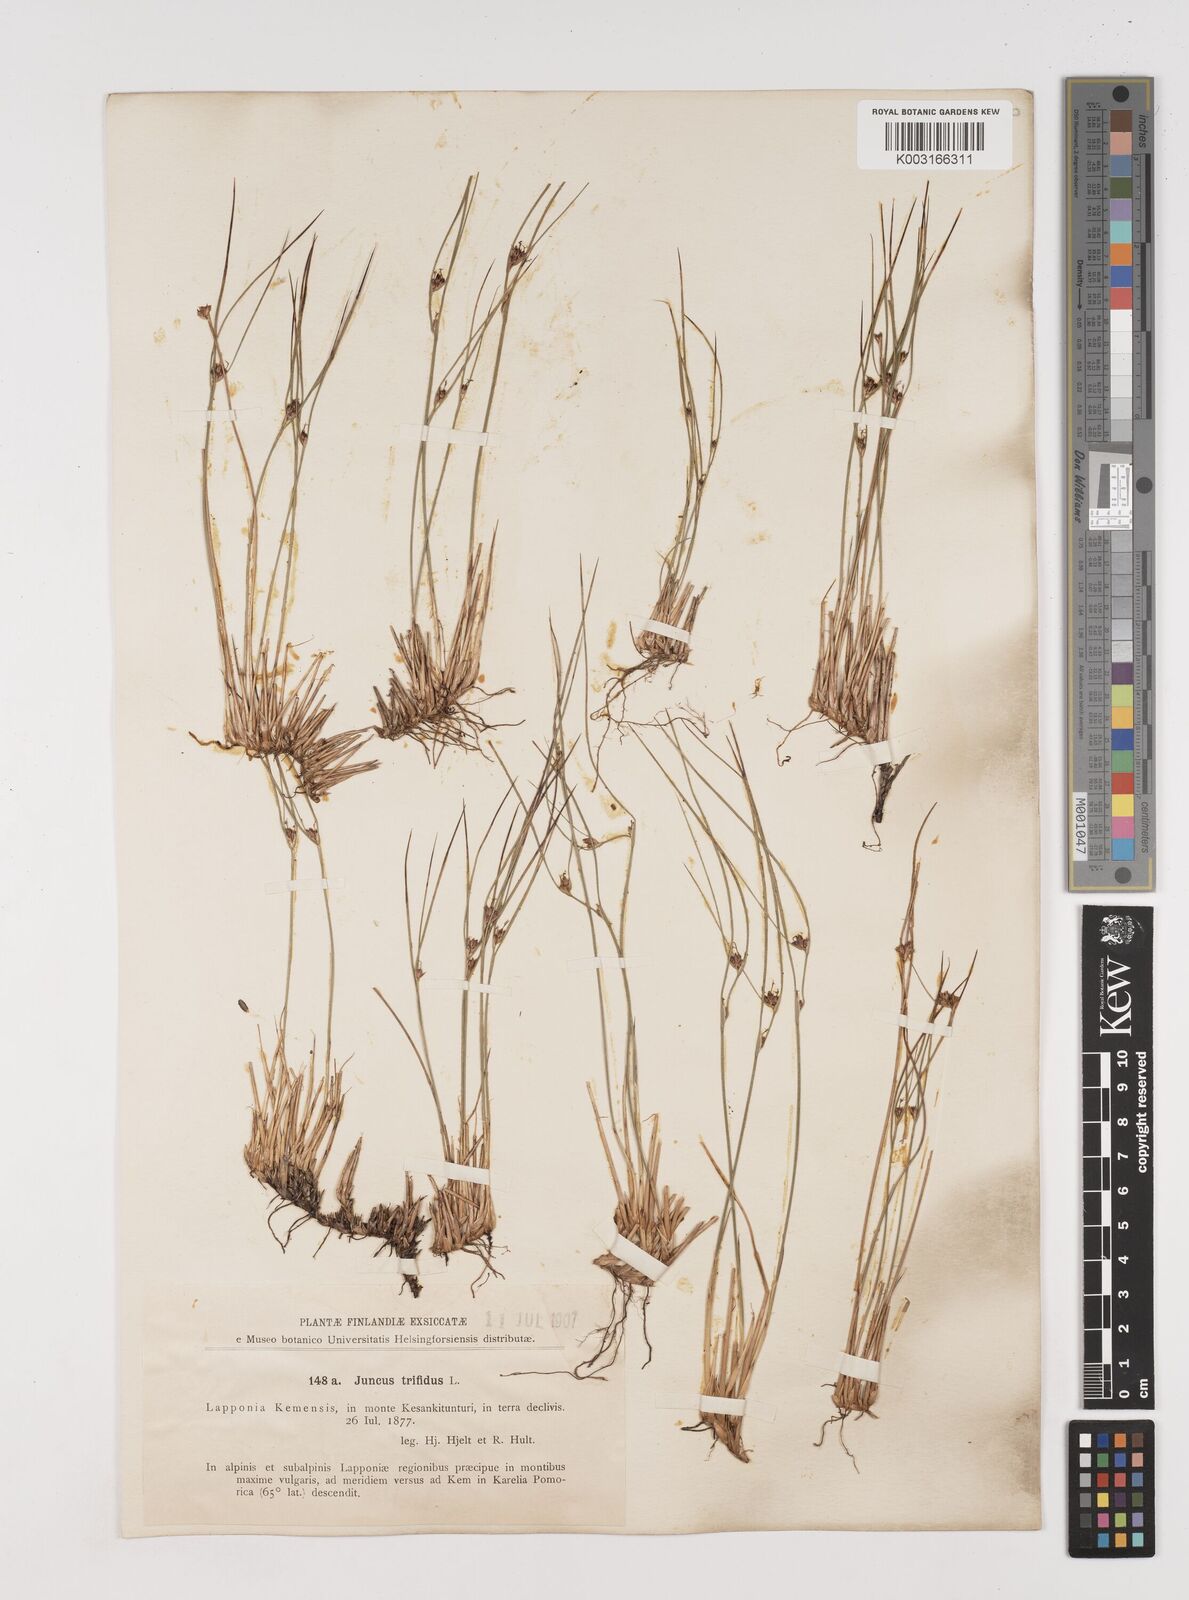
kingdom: Plantae
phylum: Tracheophyta
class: Liliopsida
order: Poales
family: Juncaceae
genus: Oreojuncus
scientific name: Oreojuncus trifidus
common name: Highland rush
